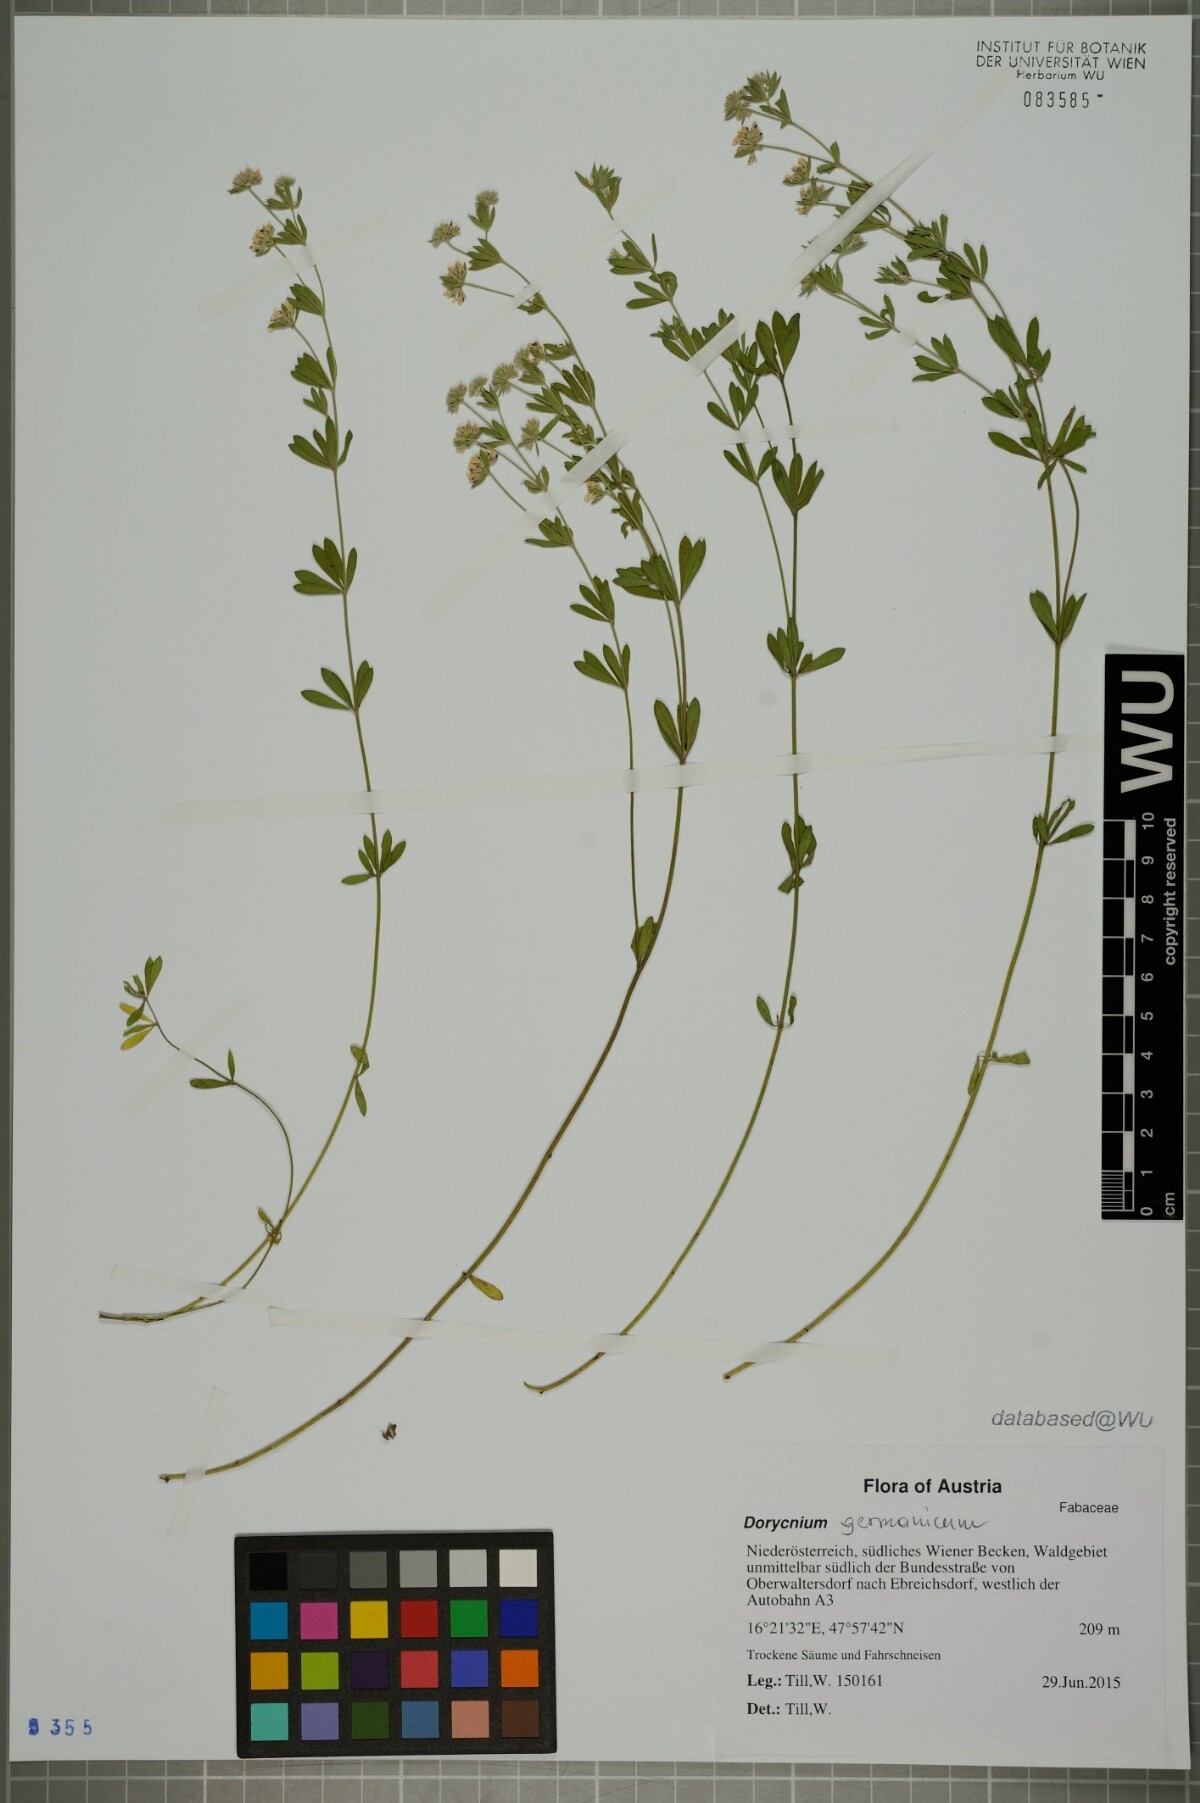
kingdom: Plantae
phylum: Tracheophyta
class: Magnoliopsida
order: Fabales
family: Fabaceae
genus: Lotus
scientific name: Lotus germanicus
